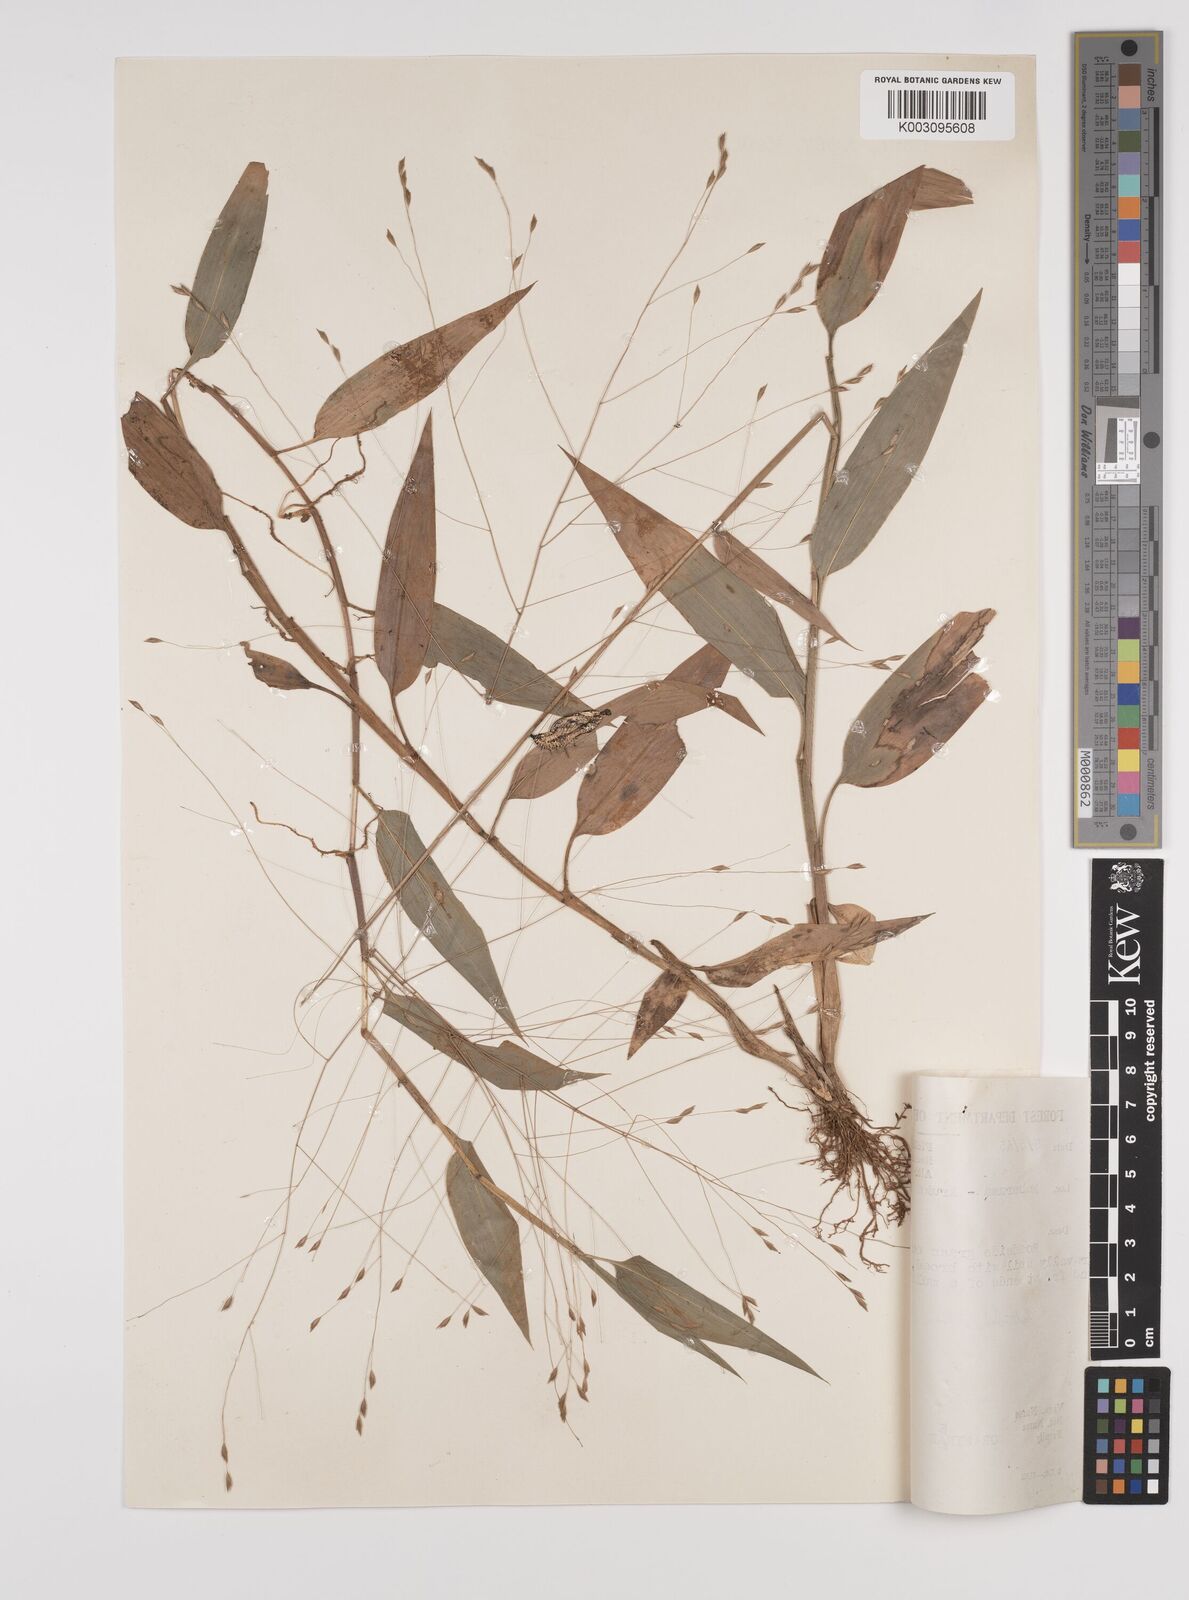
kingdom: Plantae
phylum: Tracheophyta
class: Liliopsida
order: Poales
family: Poaceae
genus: Orthoclada
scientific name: Orthoclada laxa
